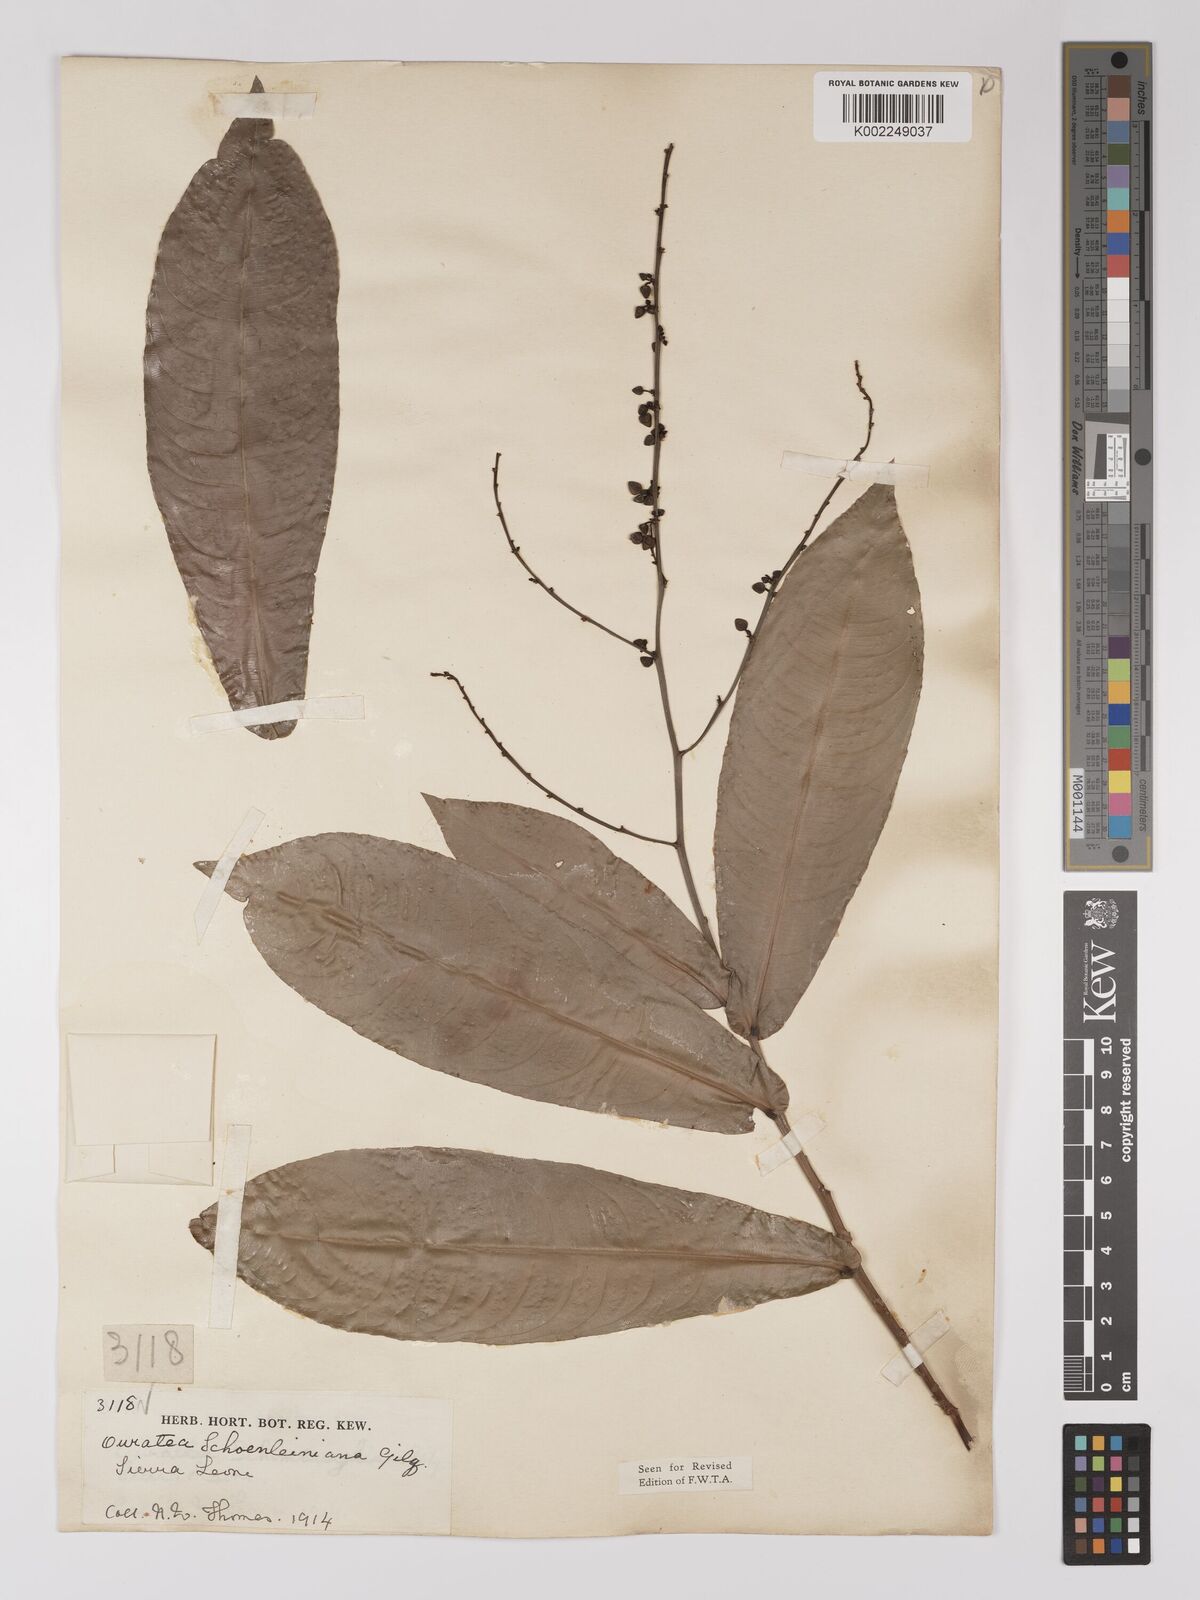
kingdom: Plantae
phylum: Tracheophyta
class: Magnoliopsida
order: Malpighiales
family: Ochnaceae
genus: Campylospermum
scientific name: Campylospermum schoenleinianum
